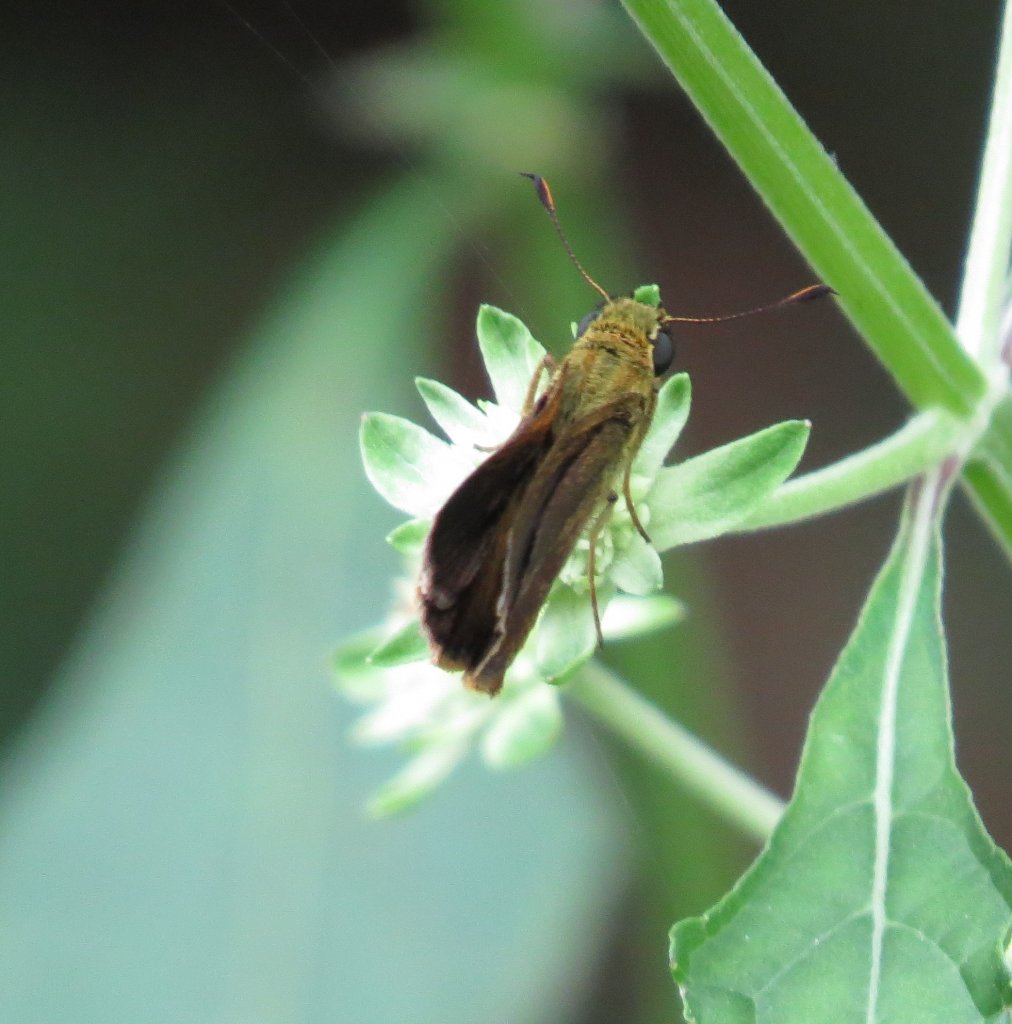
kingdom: Animalia
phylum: Arthropoda
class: Insecta
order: Lepidoptera
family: Hesperiidae
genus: Euphyes
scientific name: Euphyes vestris
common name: Dun Skipper
